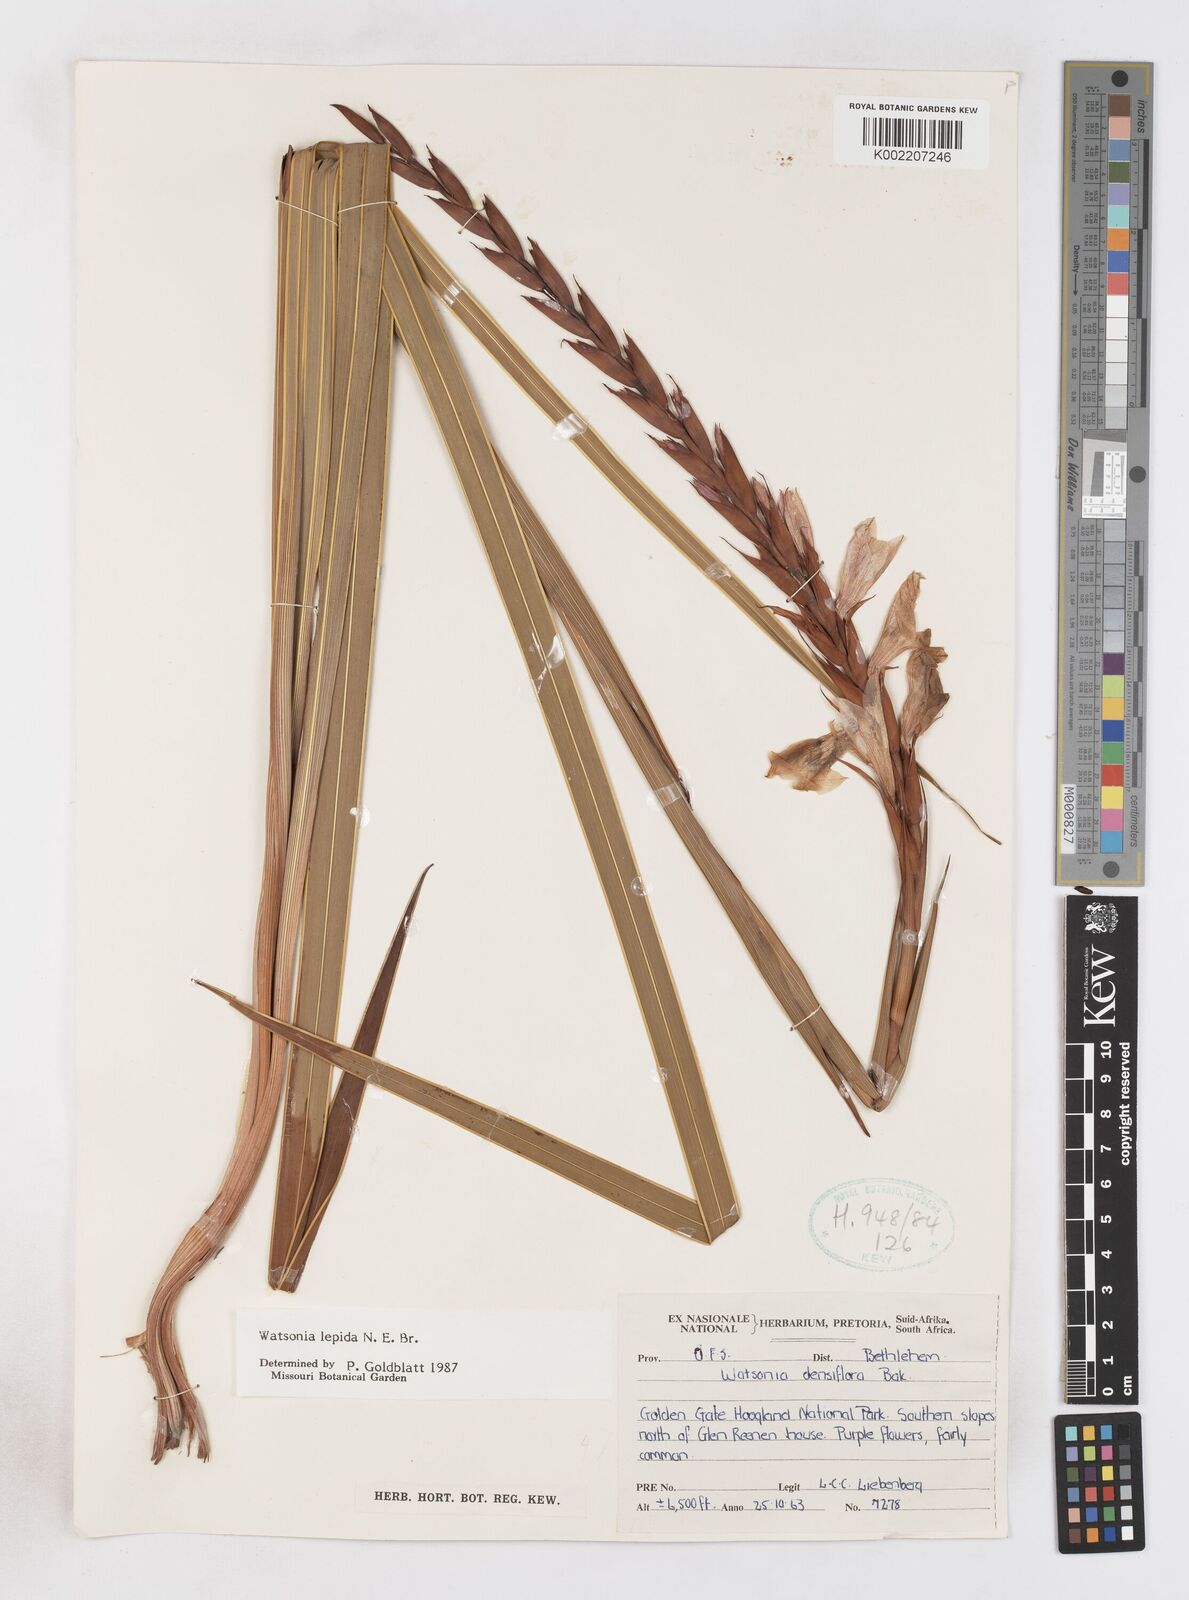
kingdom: Plantae
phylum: Tracheophyta
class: Liliopsida
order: Asparagales
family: Iridaceae
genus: Watsonia
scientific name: Watsonia lepida
